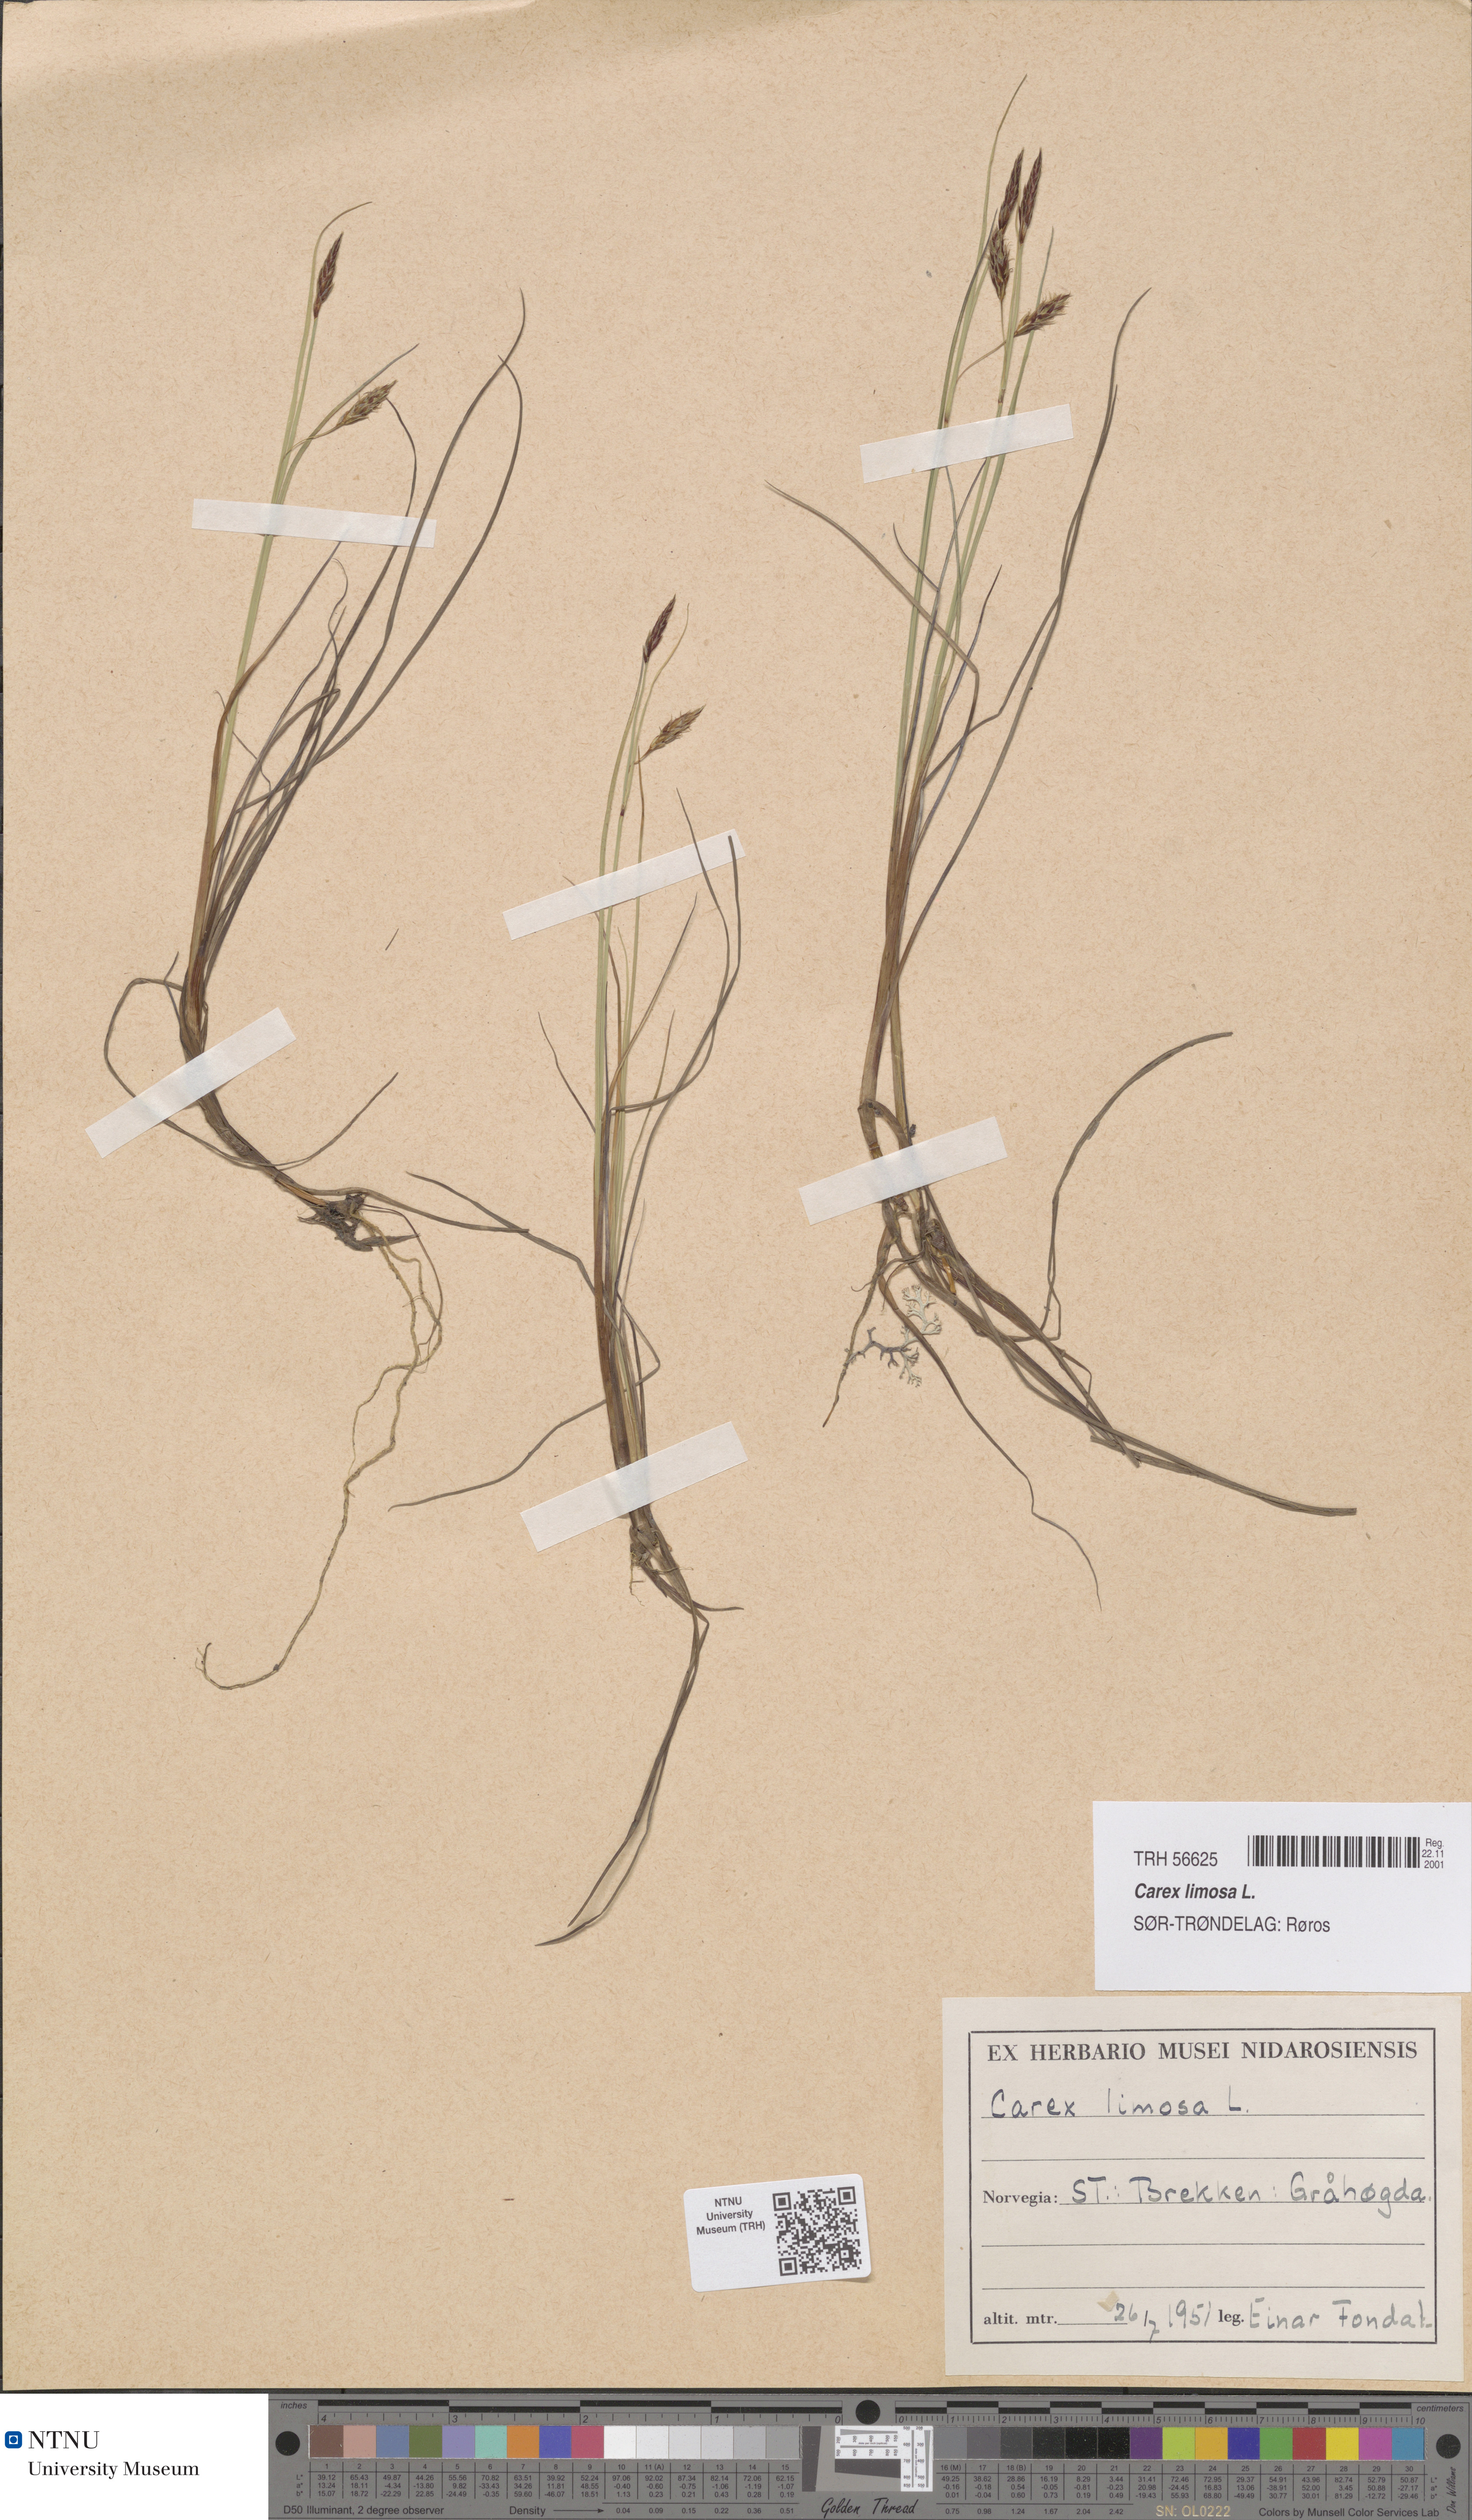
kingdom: Plantae
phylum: Tracheophyta
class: Liliopsida
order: Poales
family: Cyperaceae
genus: Carex
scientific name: Carex limosa
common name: Bog sedge
